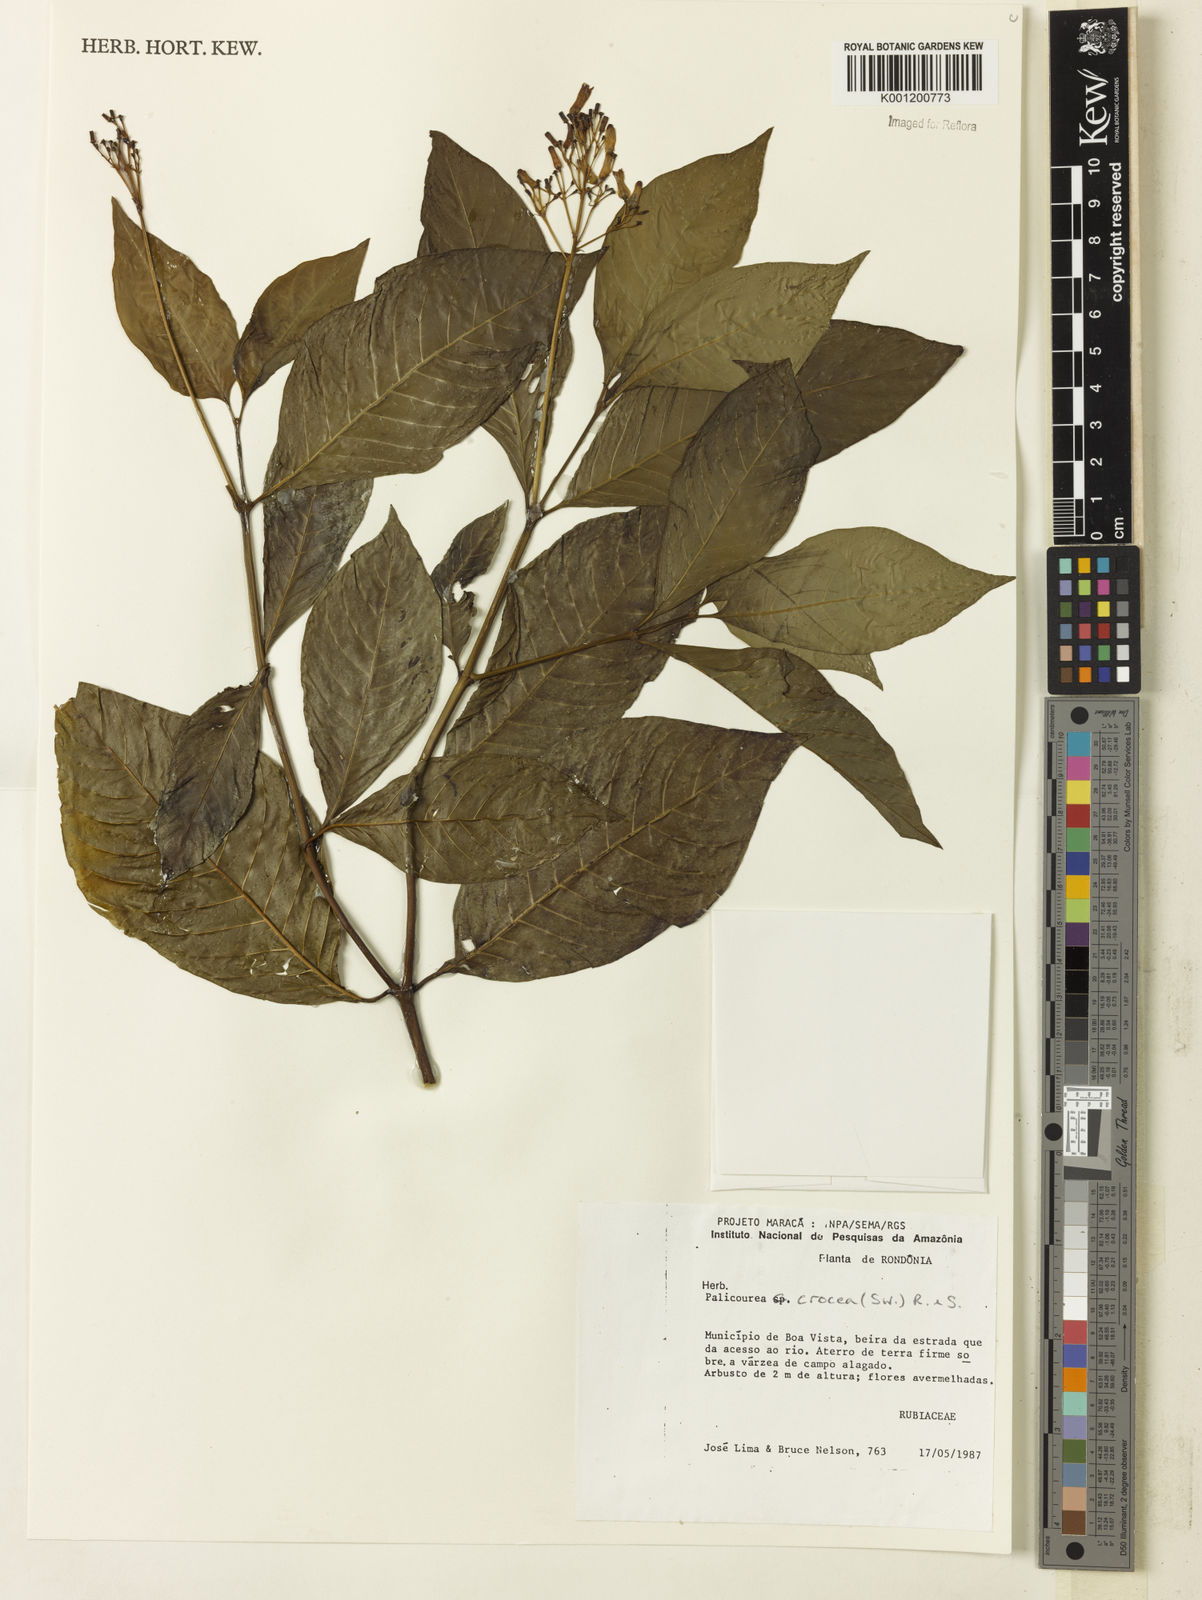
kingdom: Plantae
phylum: Tracheophyta
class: Magnoliopsida
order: Gentianales
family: Rubiaceae
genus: Palicourea
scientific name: Palicourea crocea
